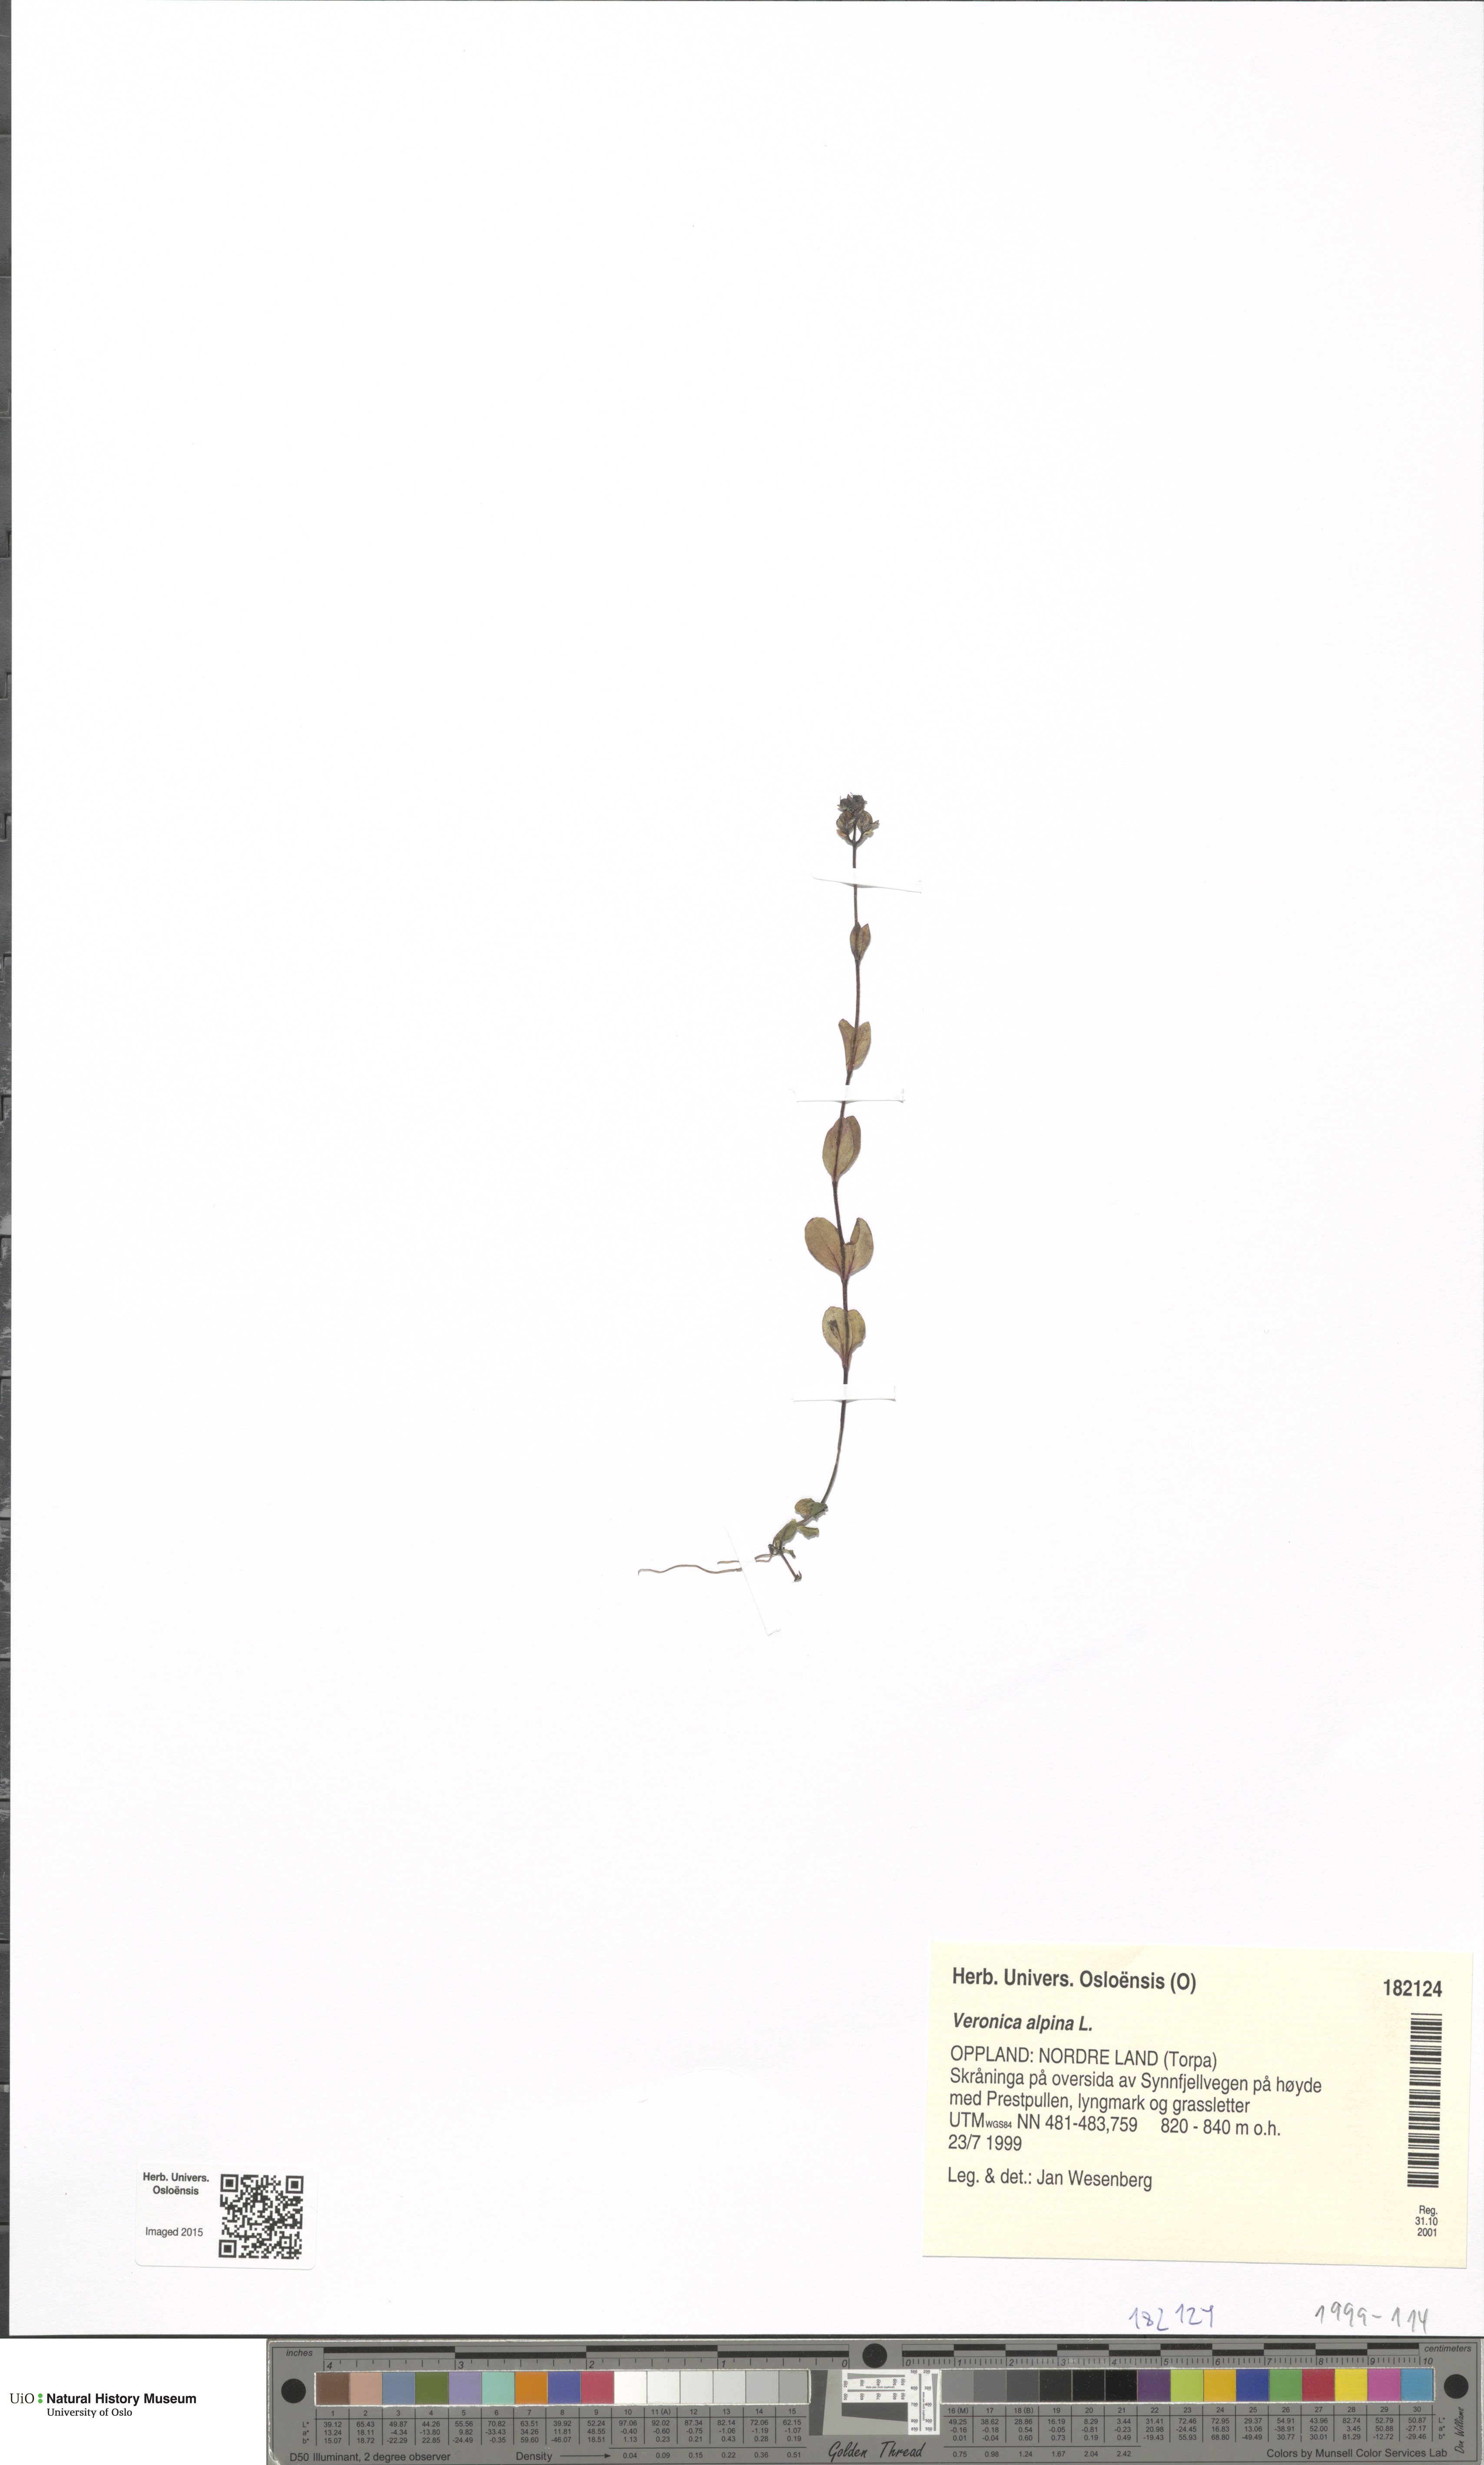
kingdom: Plantae
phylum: Tracheophyta
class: Magnoliopsida
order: Lamiales
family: Plantaginaceae
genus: Veronica
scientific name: Veronica alpina
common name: Alpine speedwell
